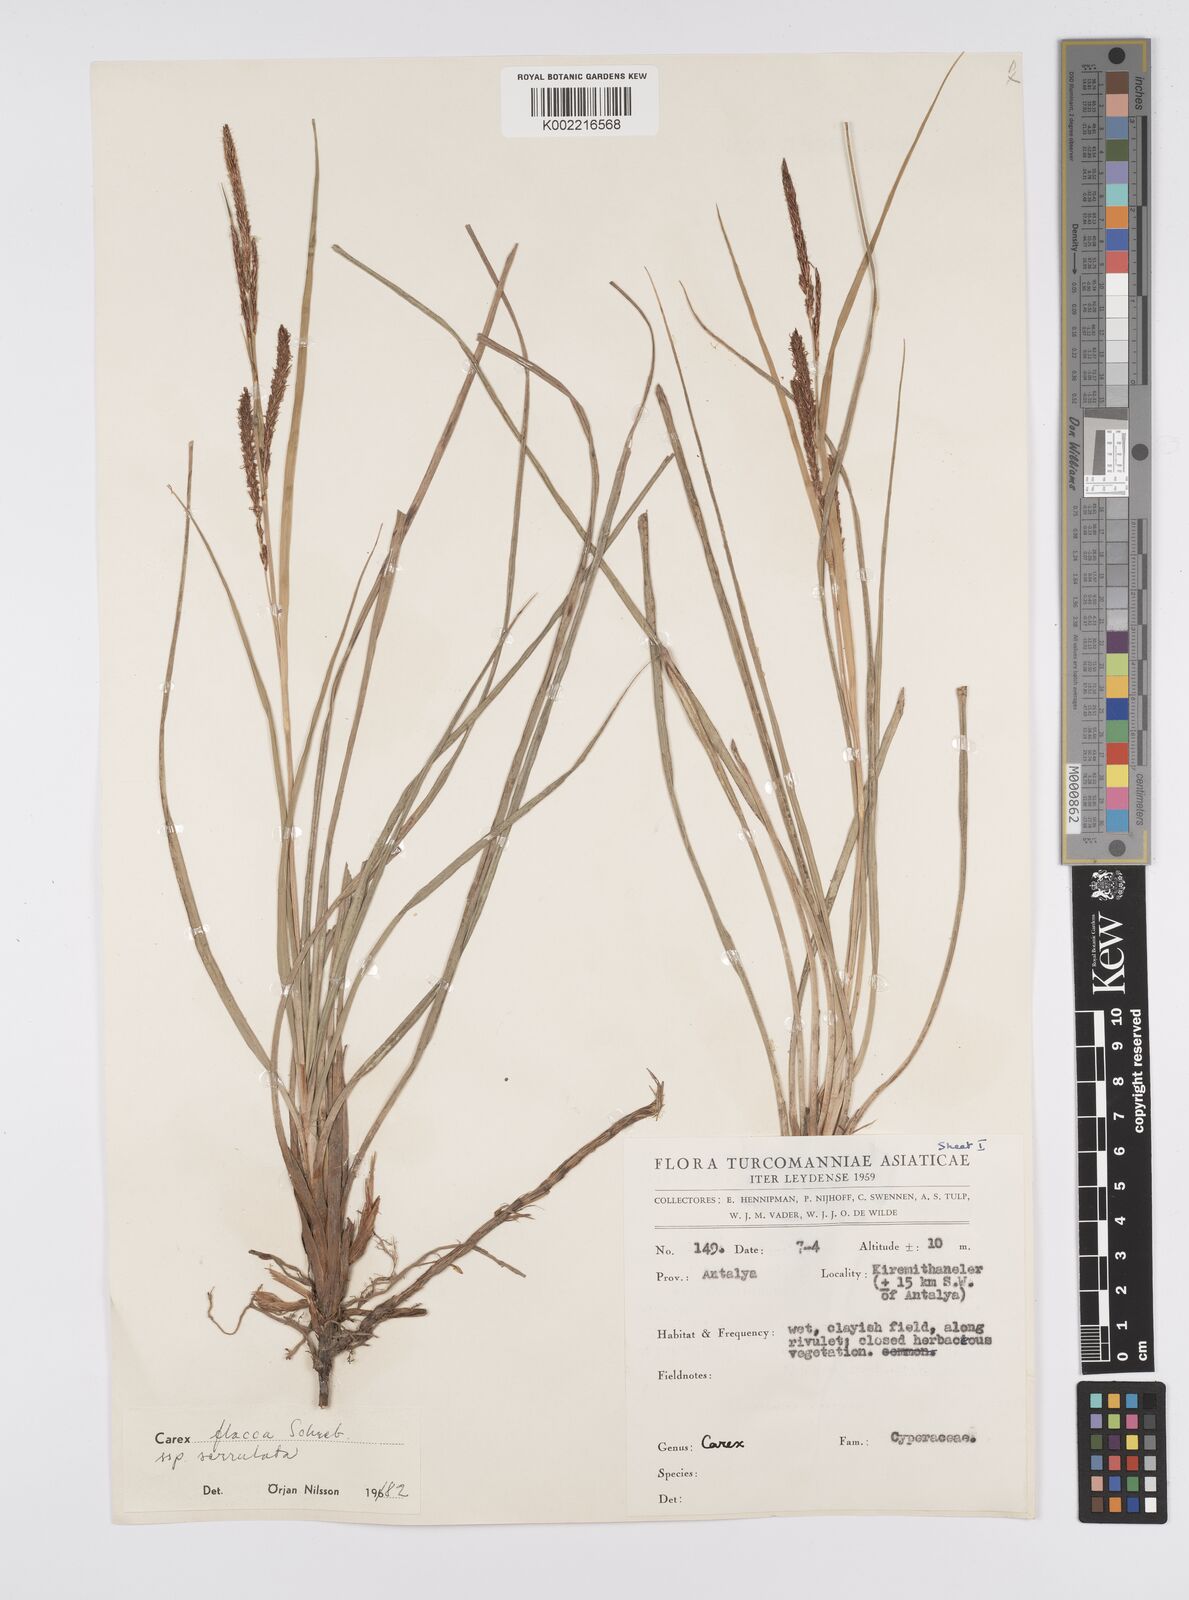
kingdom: Plantae
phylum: Tracheophyta
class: Liliopsida
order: Poales
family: Cyperaceae
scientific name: Cyperaceae
